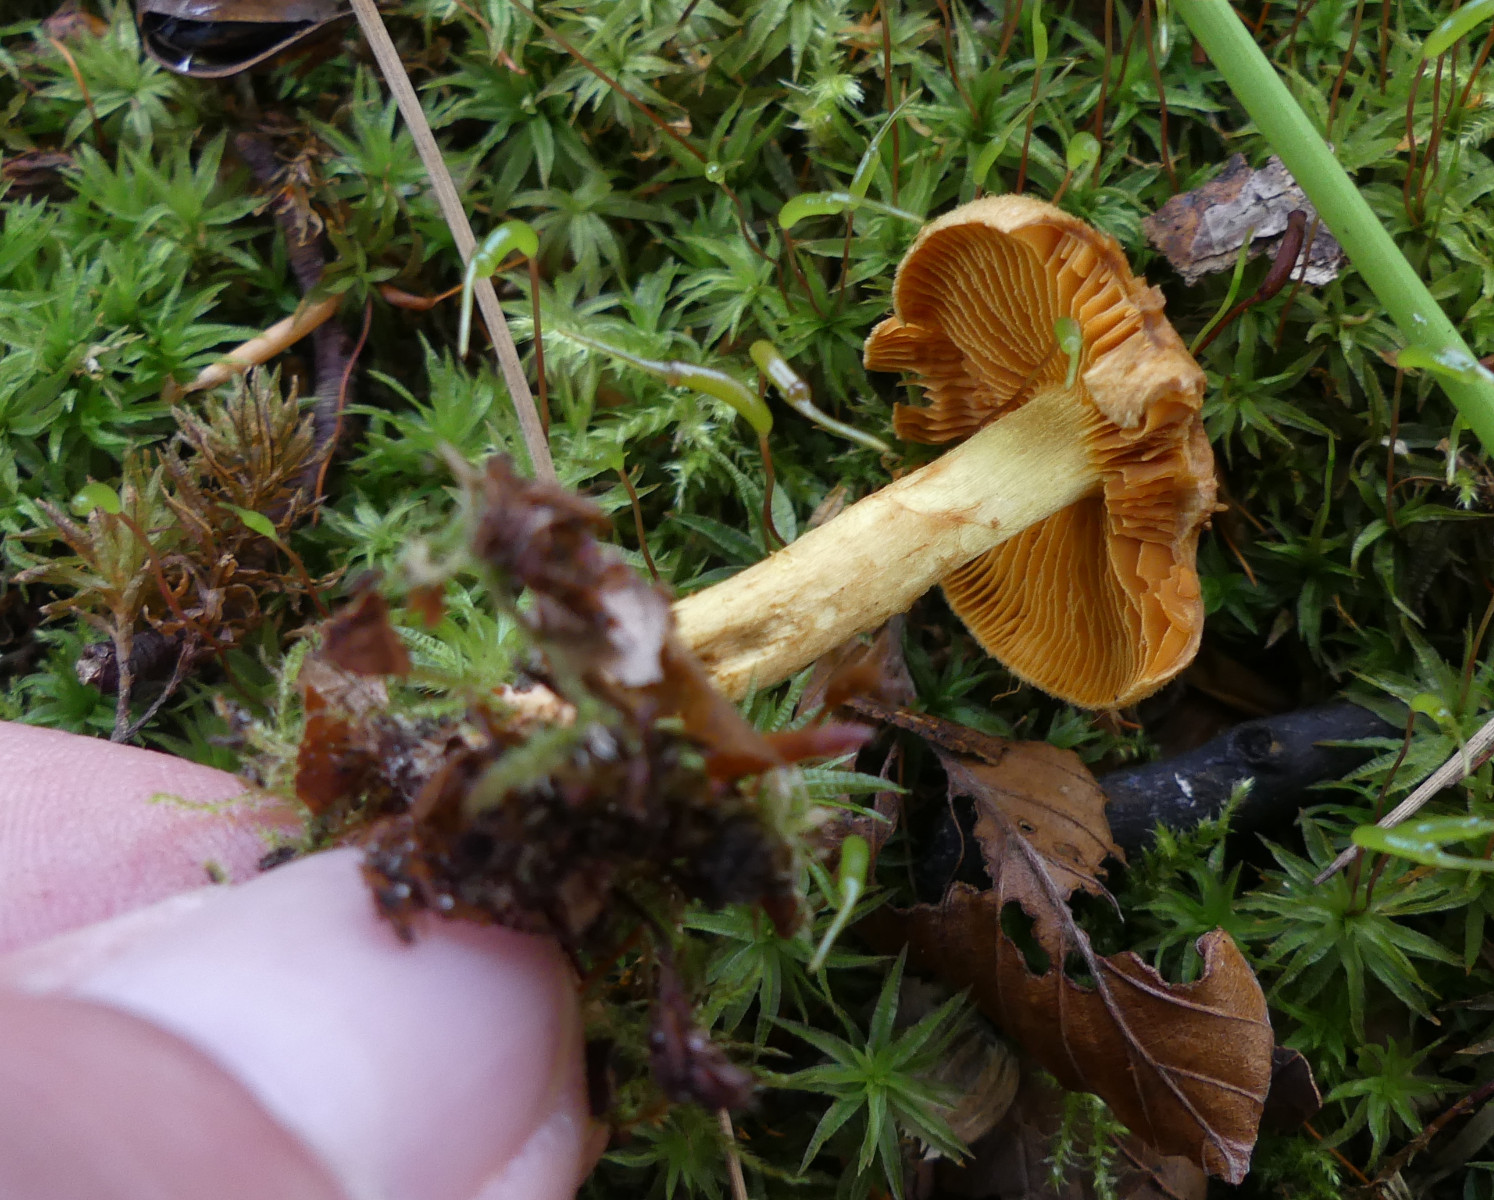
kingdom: Fungi
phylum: Basidiomycota
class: Agaricomycetes
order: Agaricales
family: Cortinariaceae
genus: Cortinarius
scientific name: Cortinarius cinnamomeus
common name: kanel-slørhat
